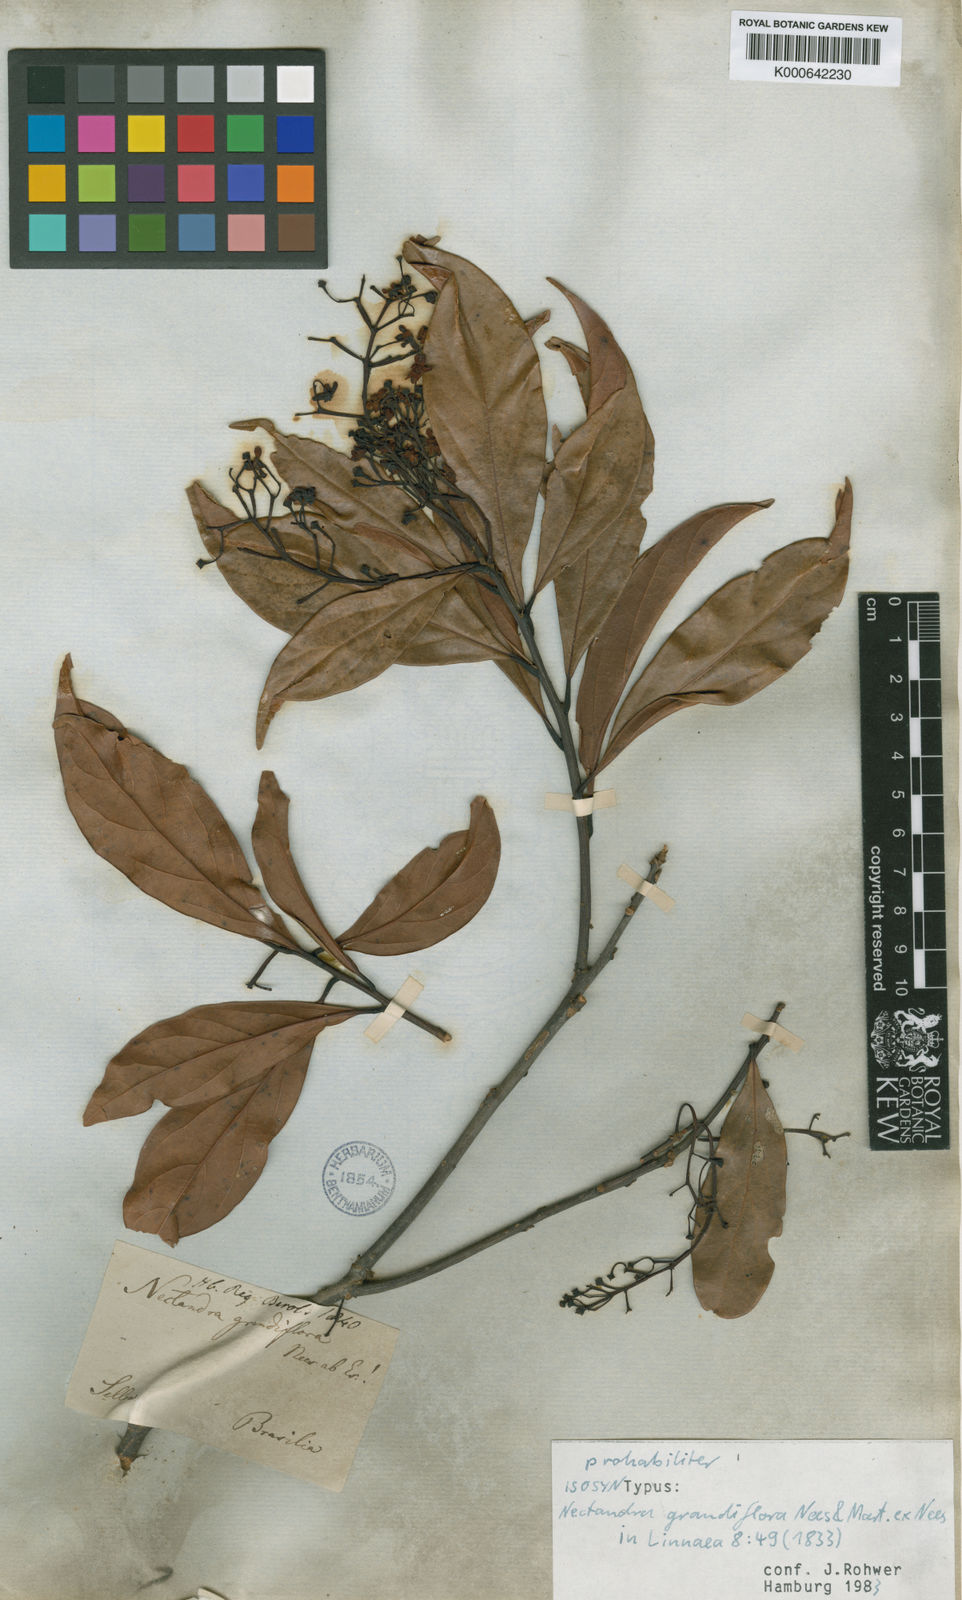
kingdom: Plantae
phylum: Tracheophyta
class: Magnoliopsida
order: Laurales
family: Lauraceae
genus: Nectandra
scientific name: Nectandra grandiflora
